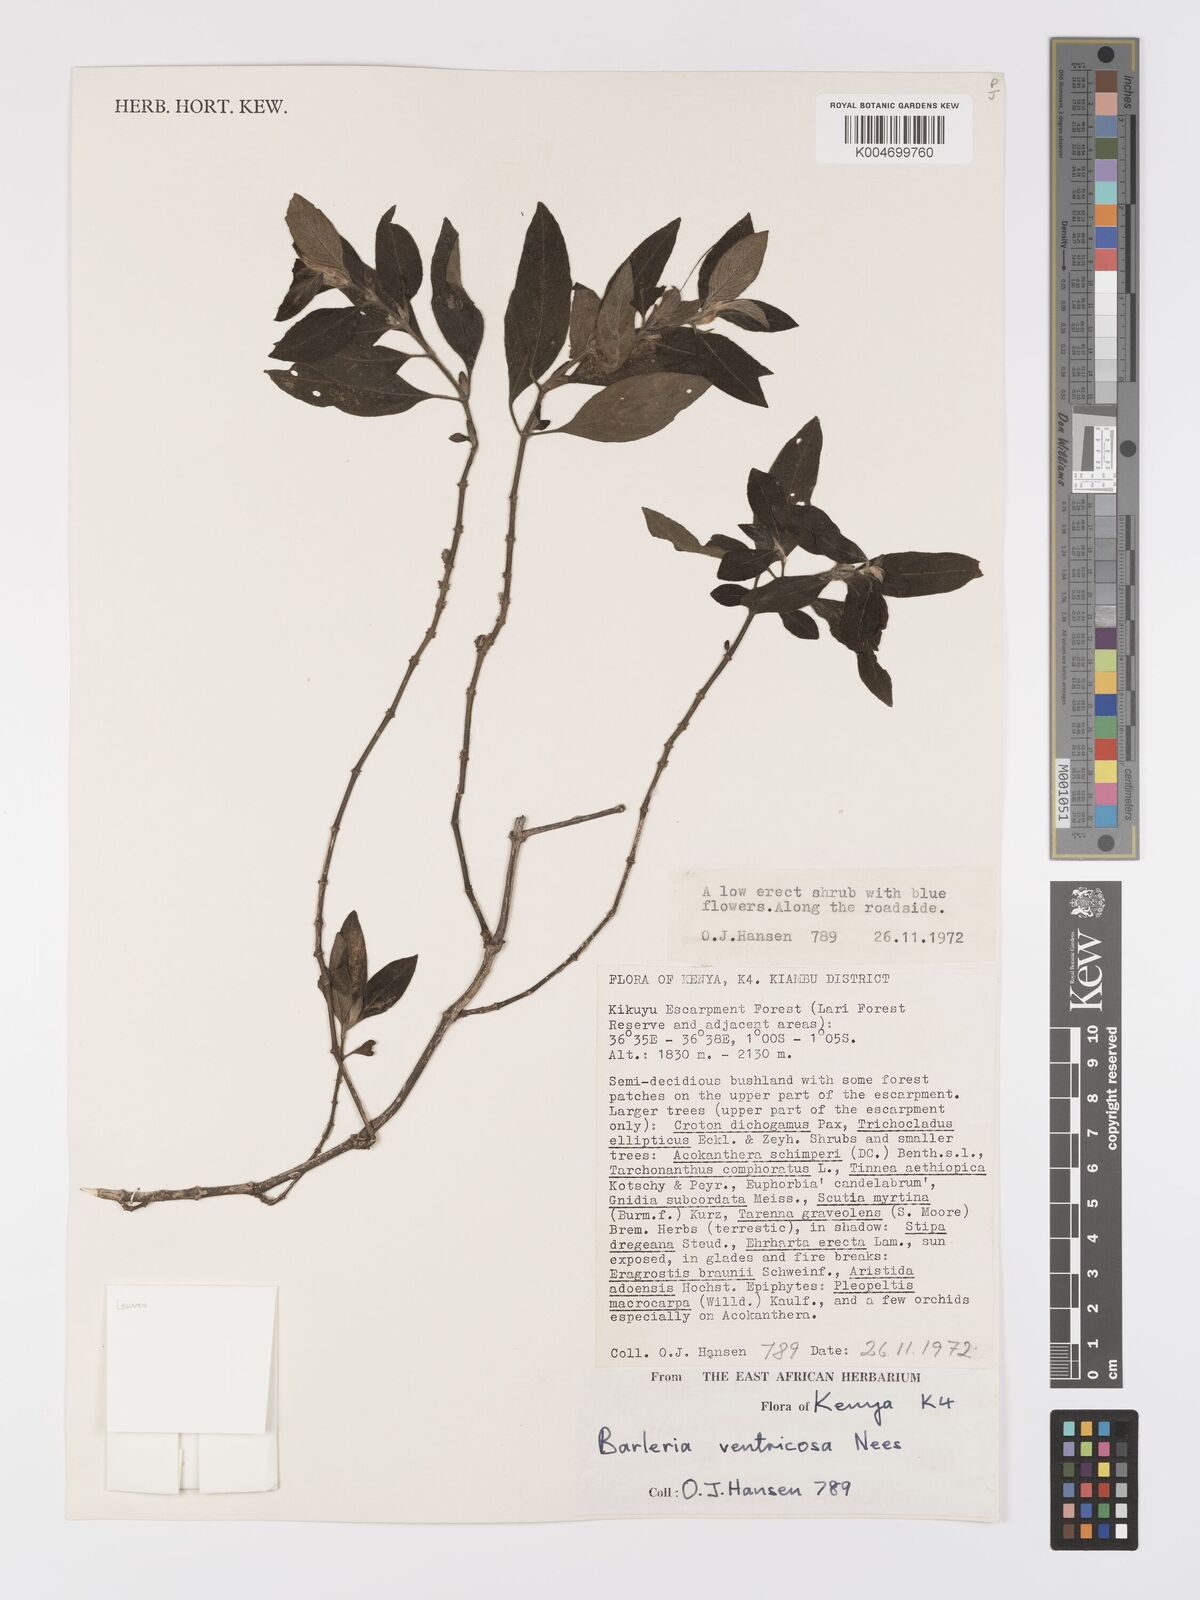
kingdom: Plantae
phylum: Tracheophyta
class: Magnoliopsida
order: Lamiales
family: Acanthaceae
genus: Barleria
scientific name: Barleria ventricosa
